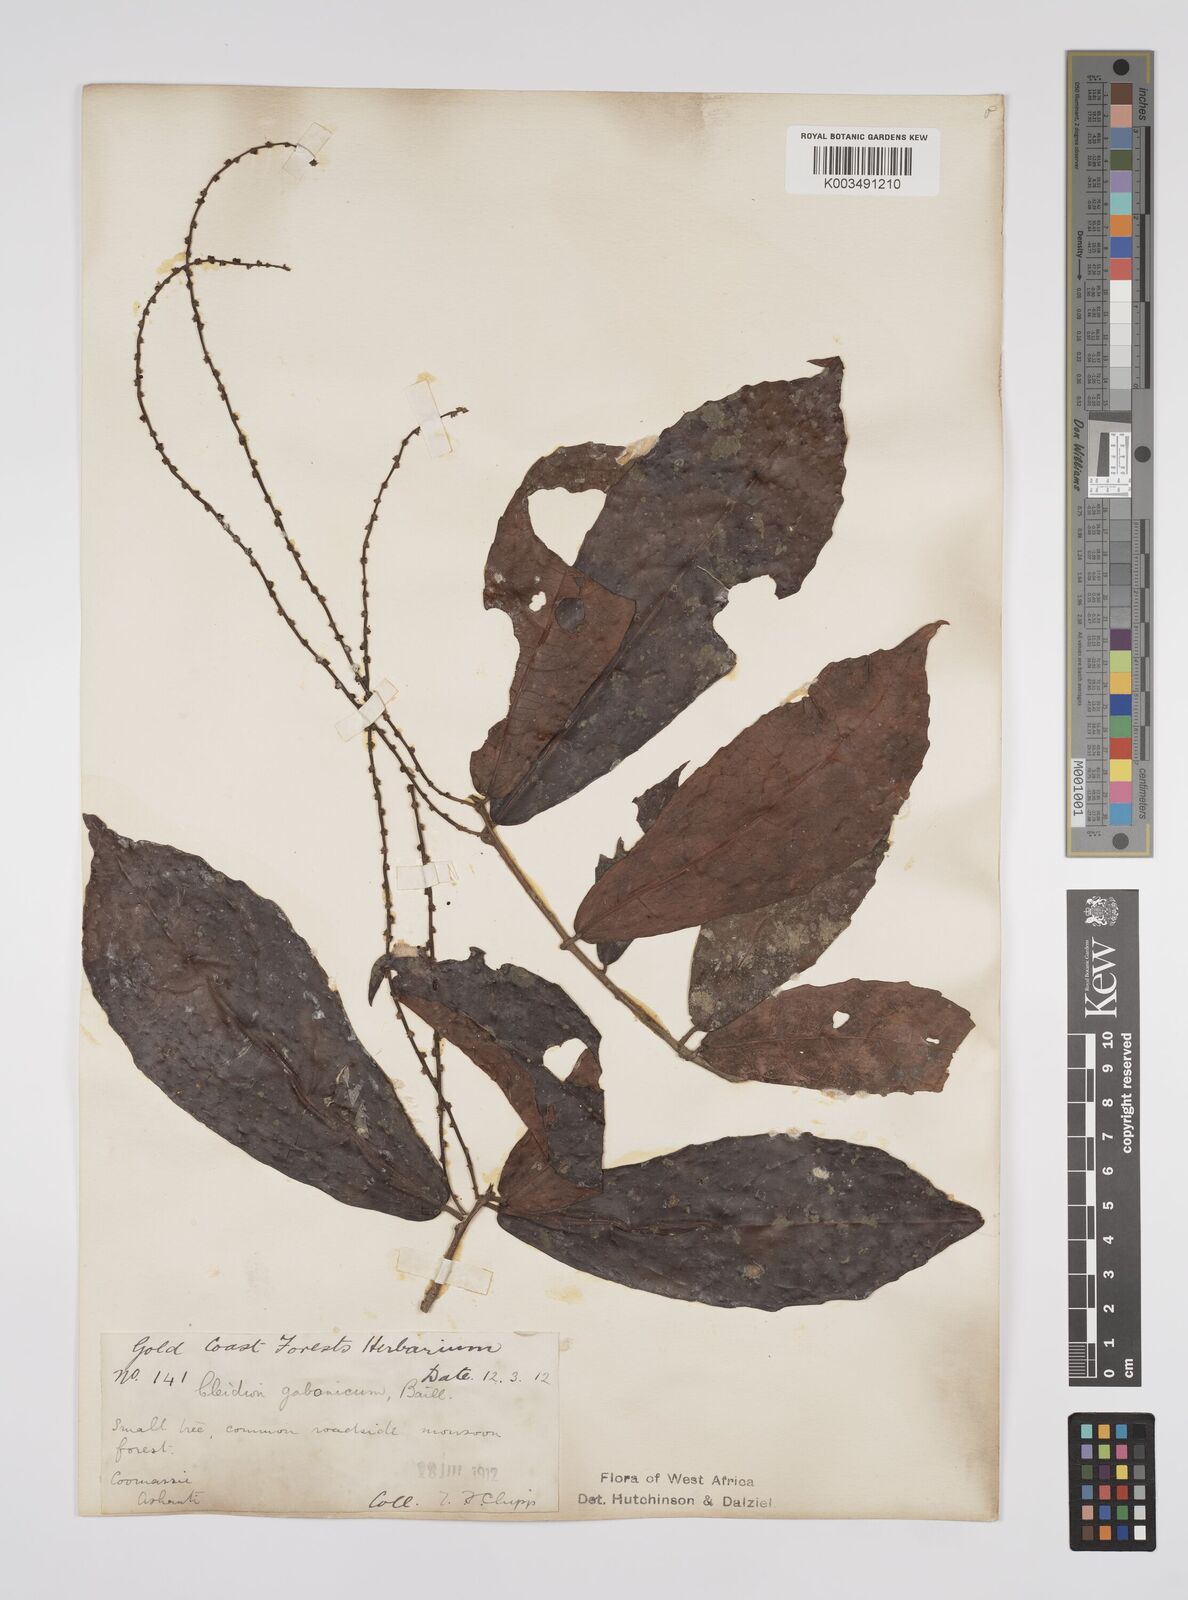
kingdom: Plantae
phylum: Tracheophyta
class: Magnoliopsida
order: Malpighiales
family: Euphorbiaceae
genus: Cleidion
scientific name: Cleidion gabonicum
